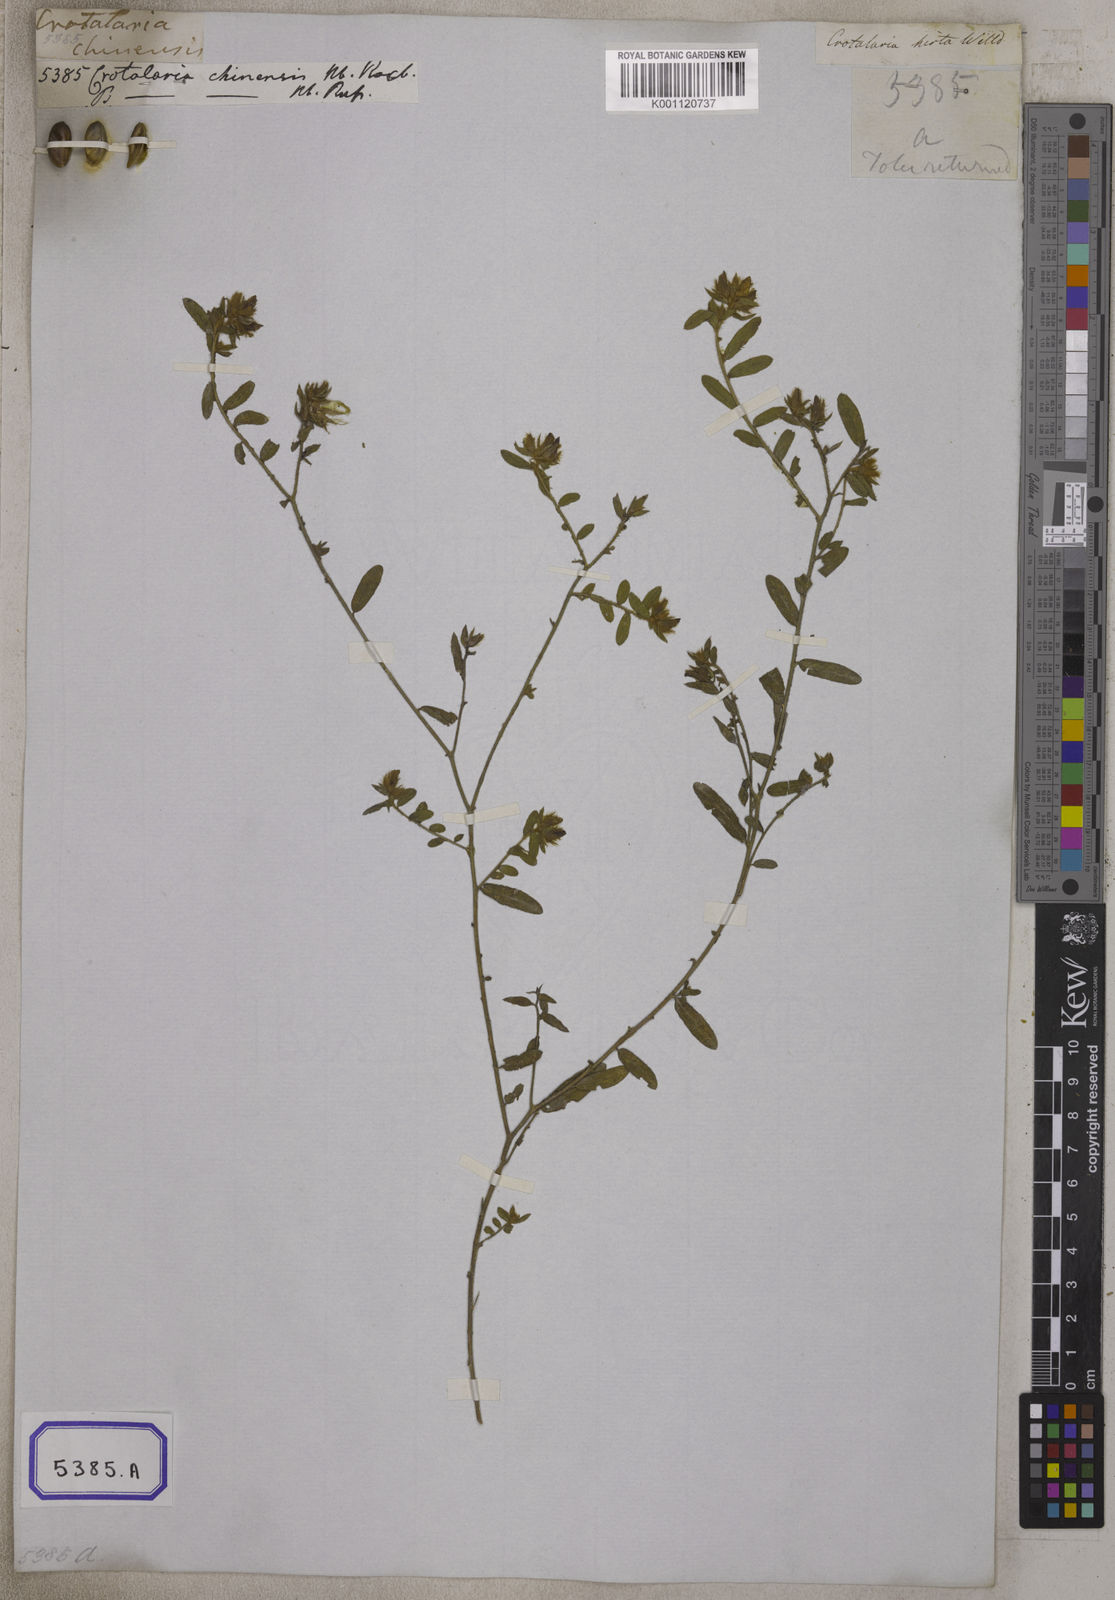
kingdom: Plantae
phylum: Tracheophyta
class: Magnoliopsida
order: Fabales
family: Fabaceae
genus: Crotalaria
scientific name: Crotalaria chinensis
